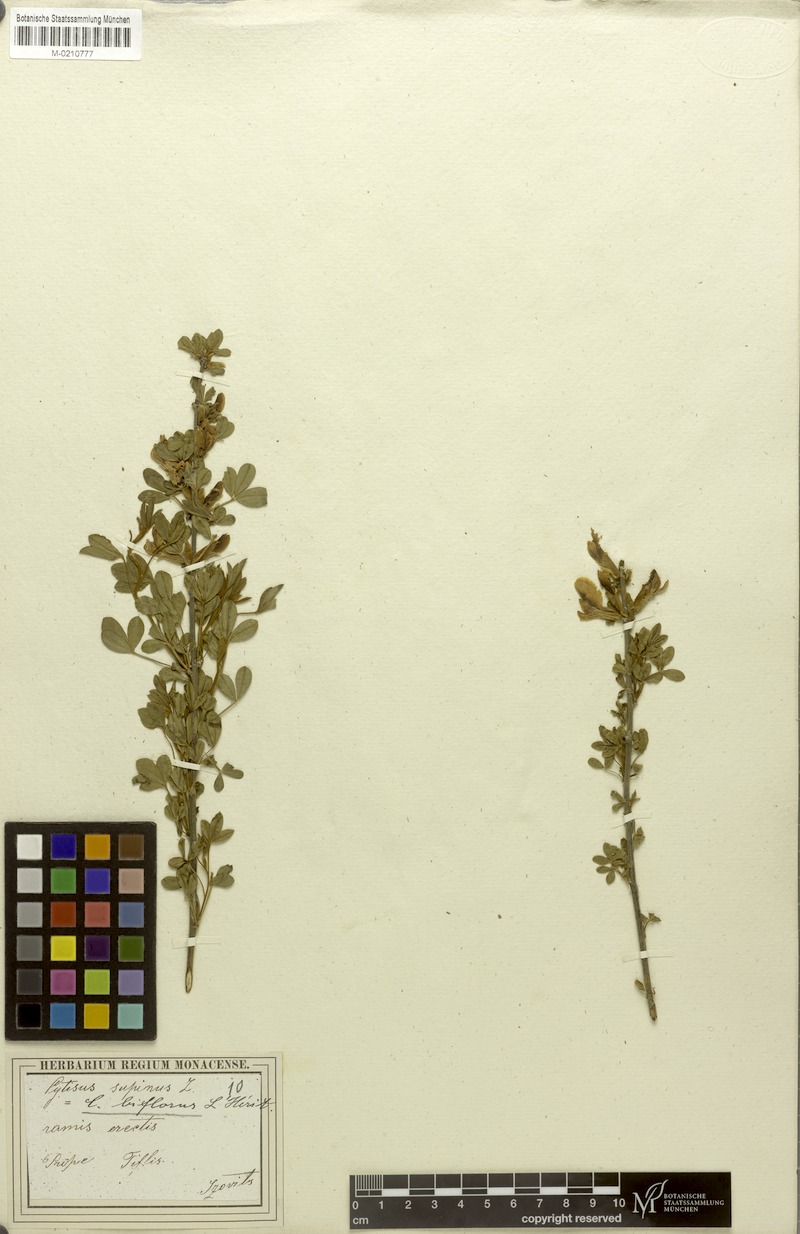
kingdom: Plantae
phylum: Tracheophyta
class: Magnoliopsida
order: Fabales
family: Fabaceae
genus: Chamaecytisus
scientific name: Chamaecytisus ratisbonensis
